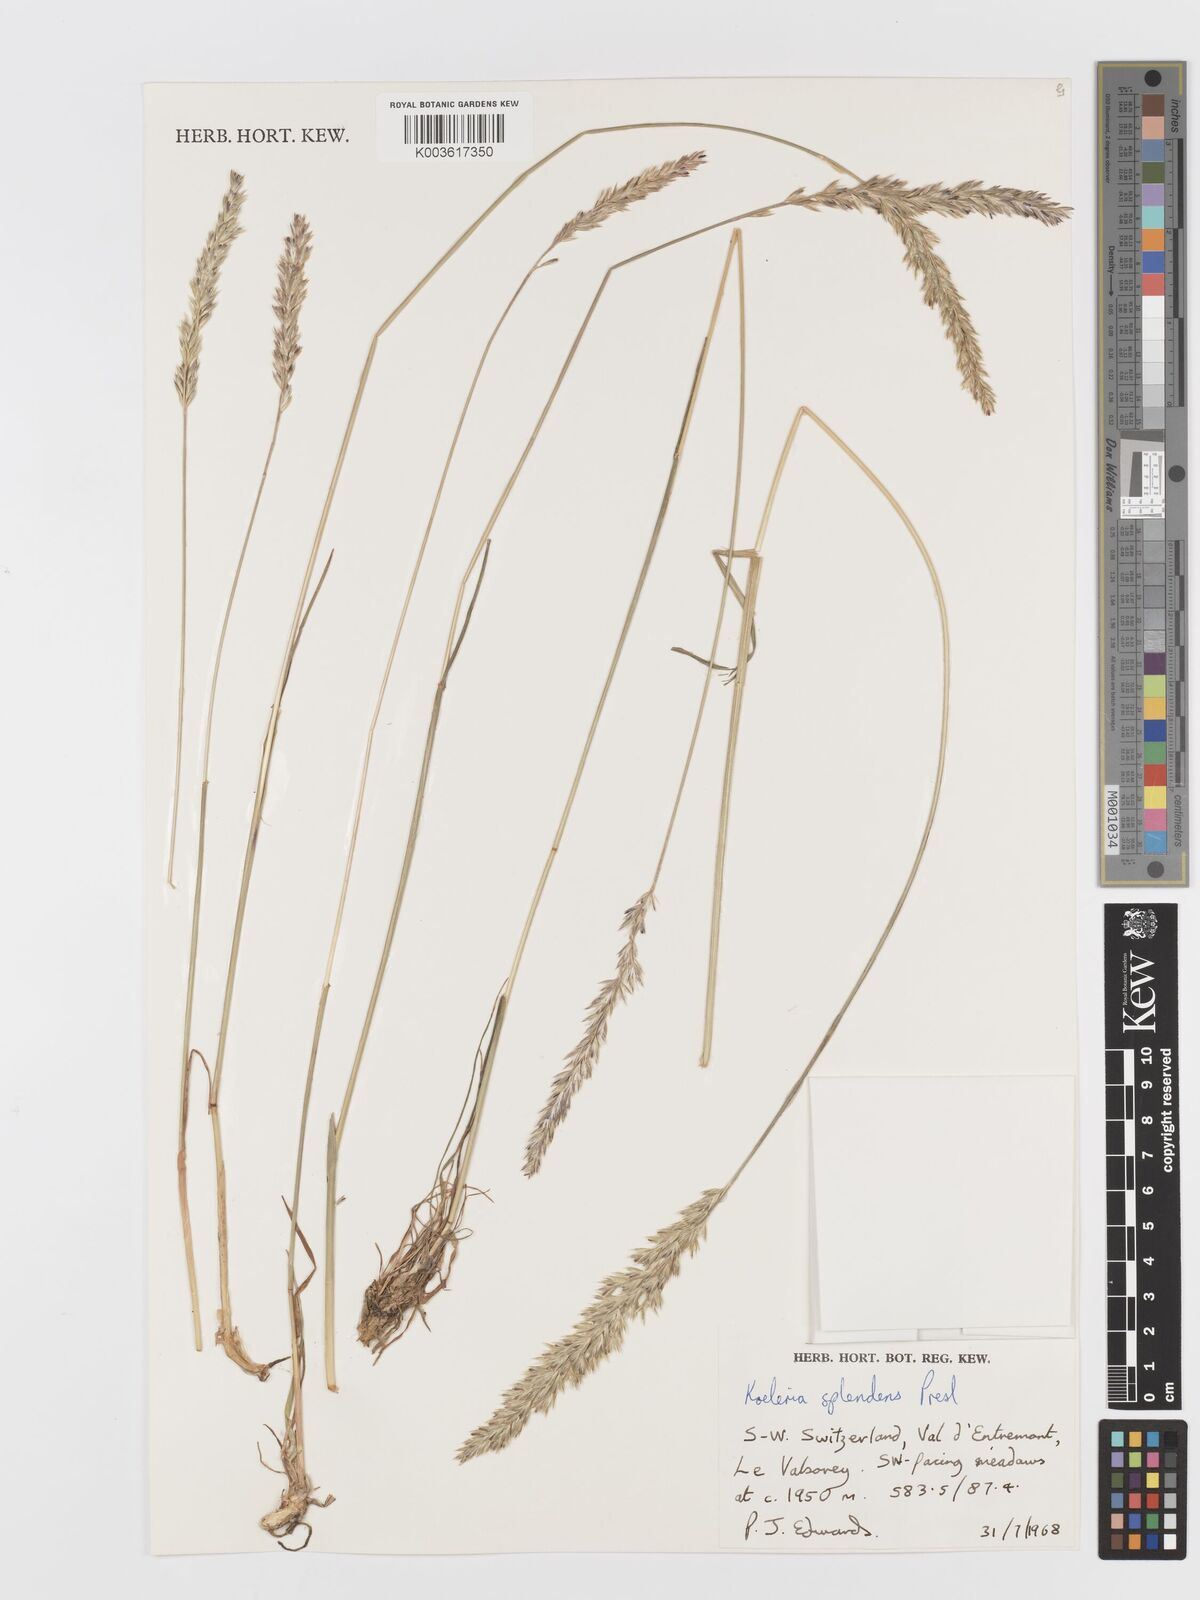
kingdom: Plantae
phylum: Tracheophyta
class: Liliopsida
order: Poales
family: Poaceae
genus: Koeleria
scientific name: Koeleria splendens
